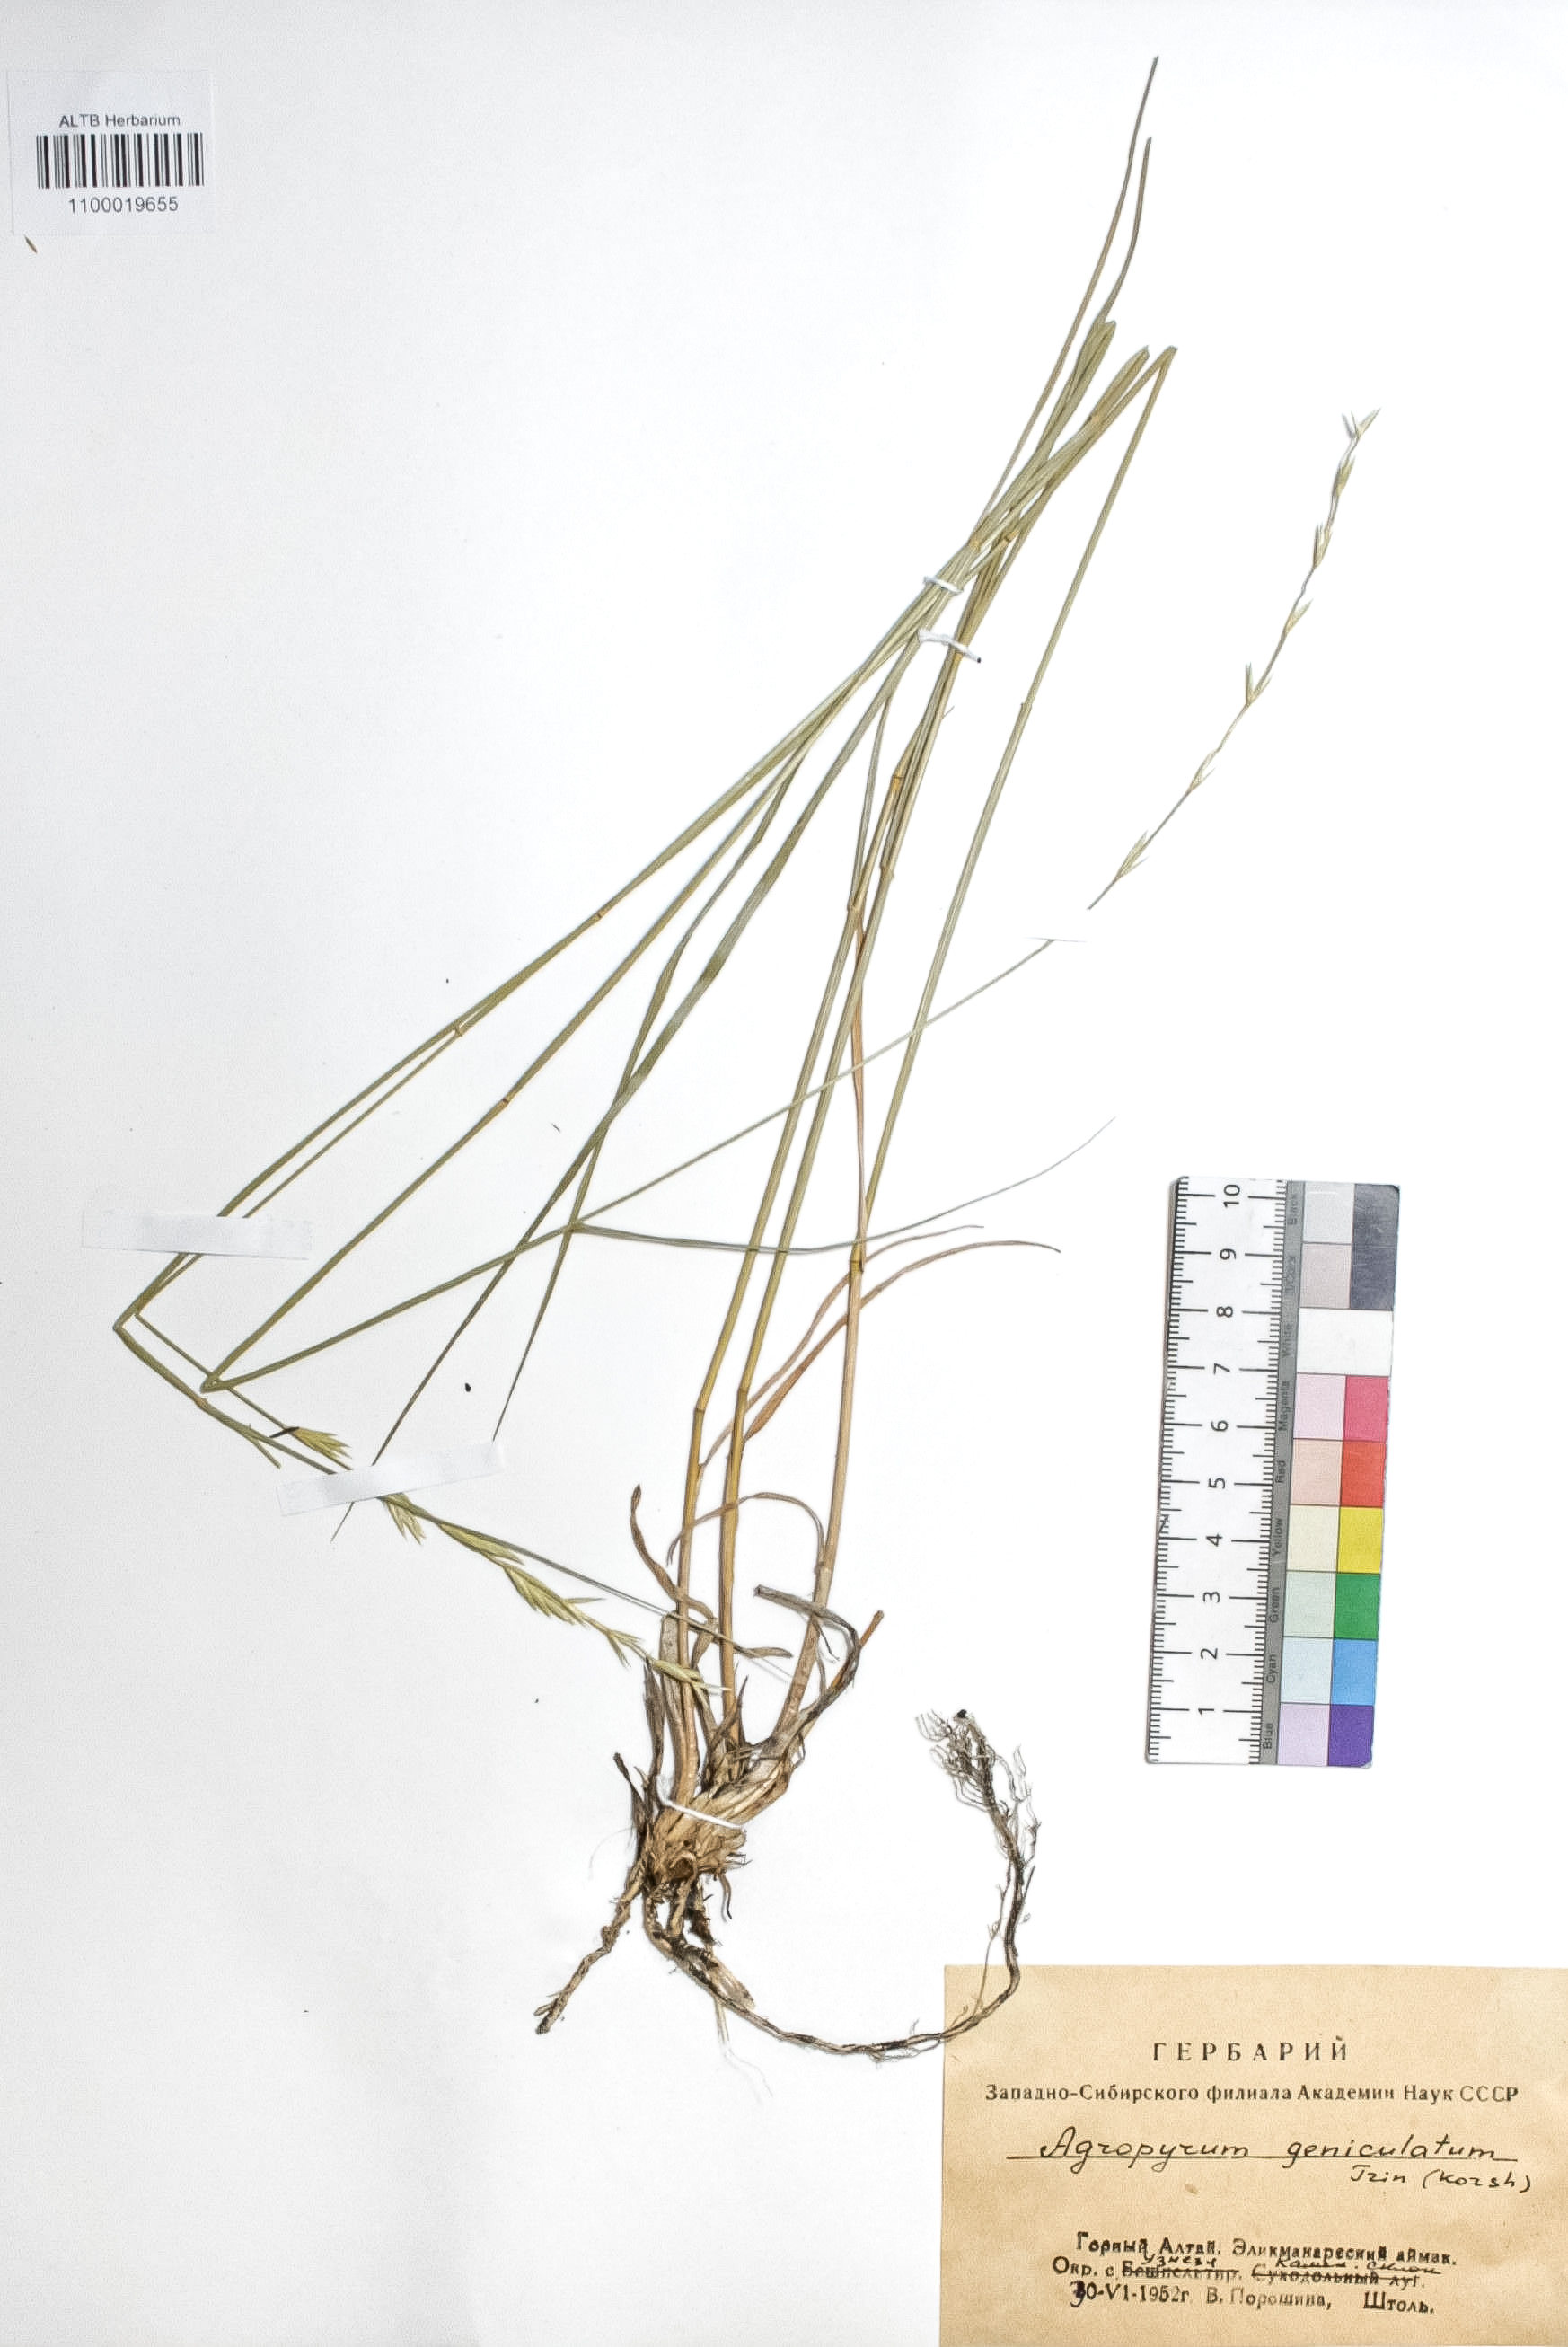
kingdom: Plantae
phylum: Tracheophyta
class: Liliopsida
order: Poales
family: Poaceae
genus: Pseudoroegneria
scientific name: Pseudoroegneria geniculata
